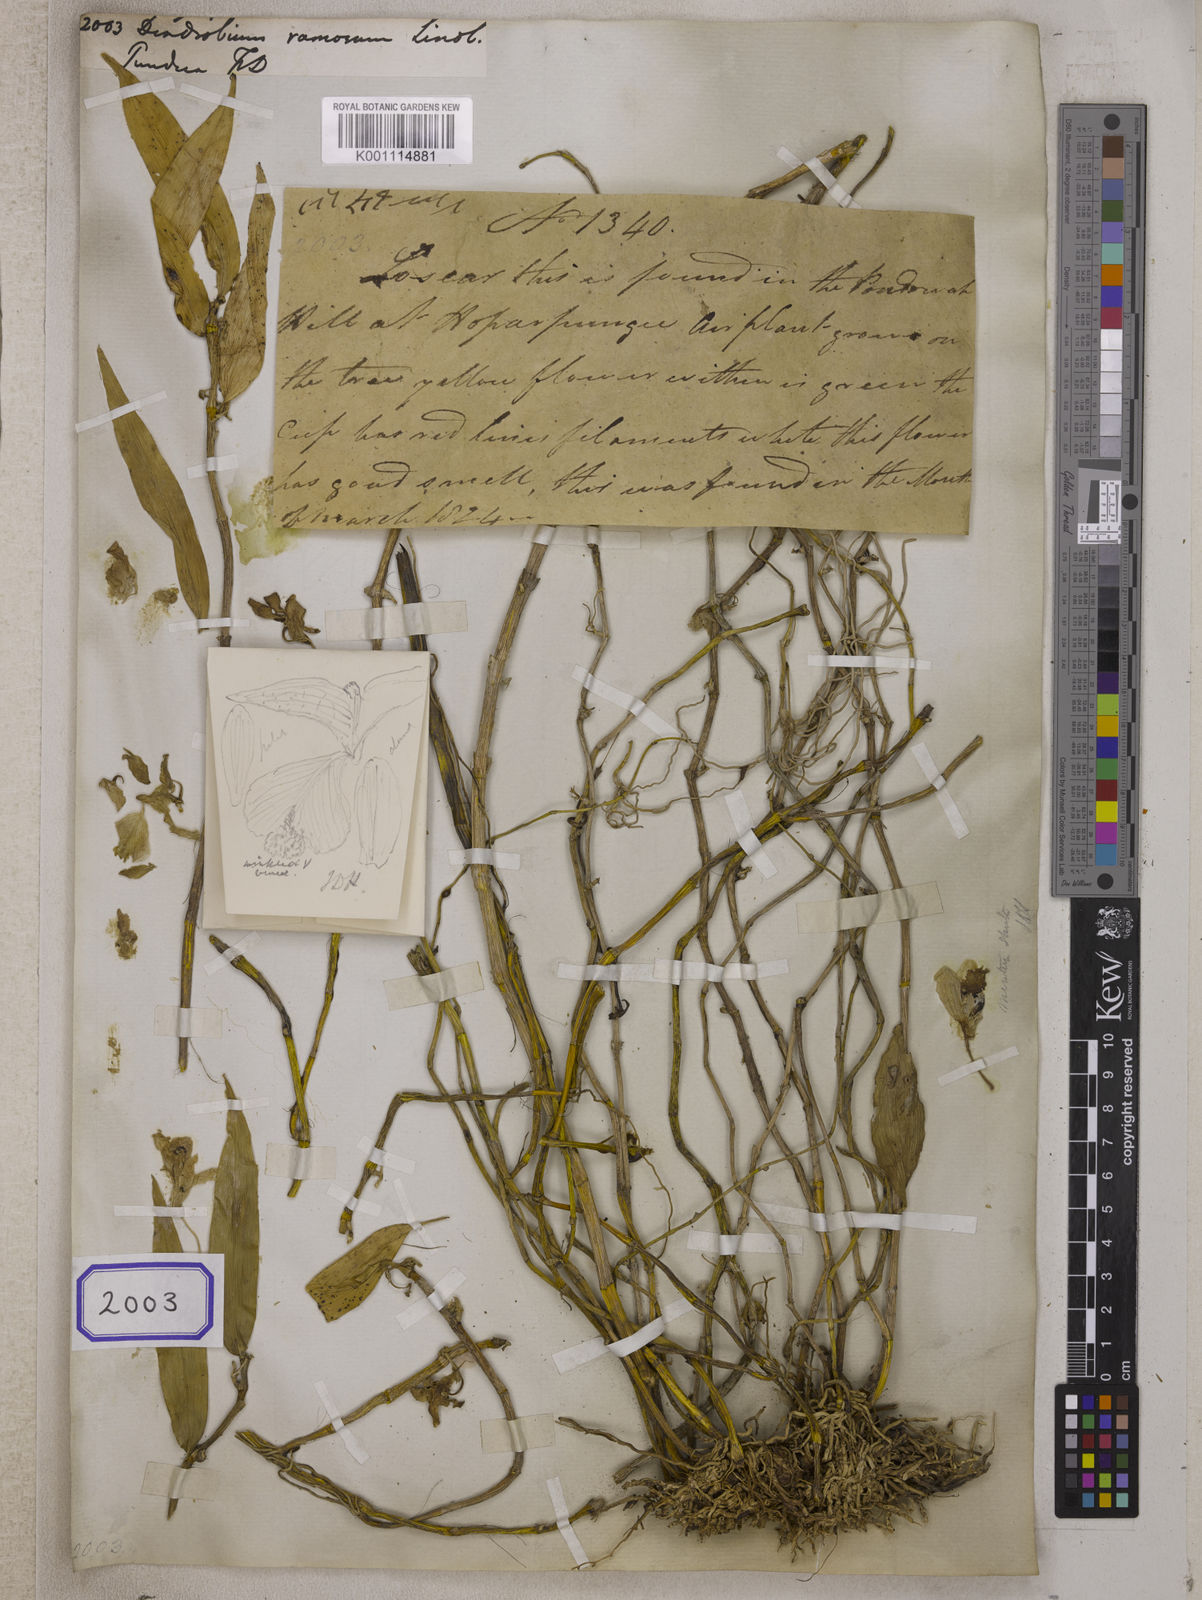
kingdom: Plantae
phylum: Tracheophyta
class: Liliopsida
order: Asparagales
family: Orchidaceae
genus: Dendrobium
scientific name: Dendrobium ruckeri
